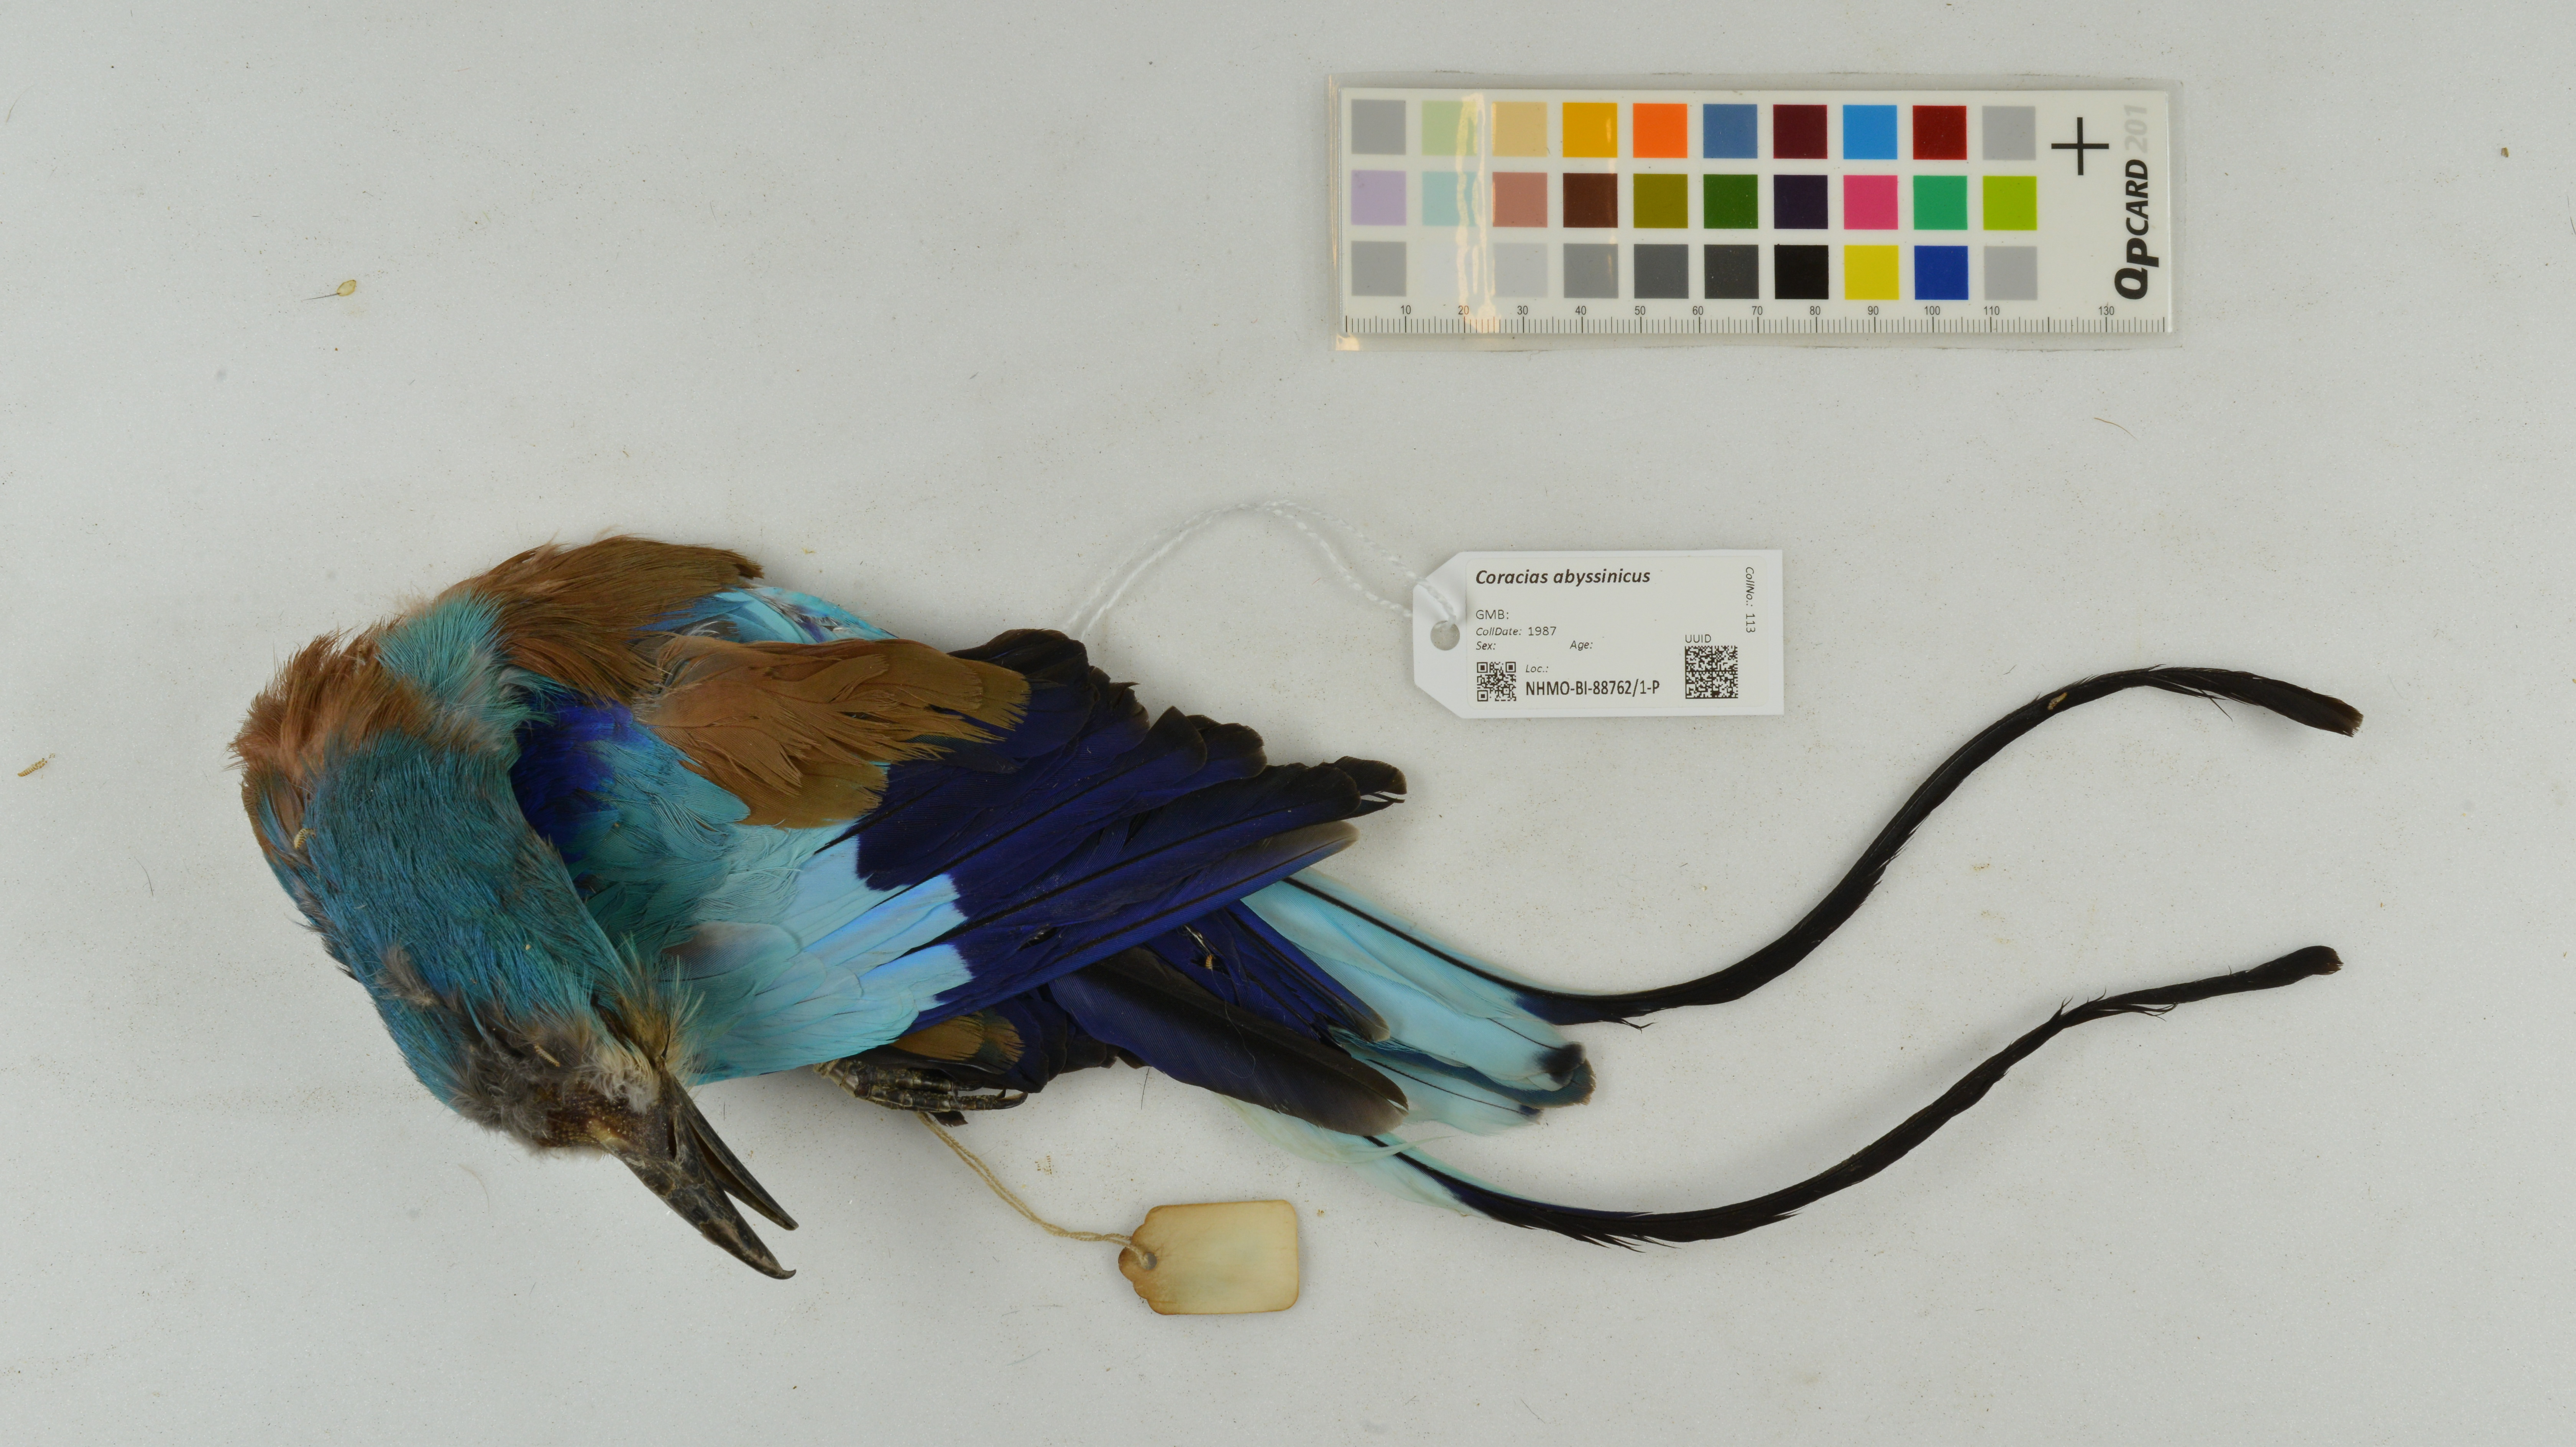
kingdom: Animalia
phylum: Chordata
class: Aves
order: Coraciiformes
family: Coraciidae
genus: Coracias
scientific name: Coracias abyssinicus
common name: Abyssinian roller
